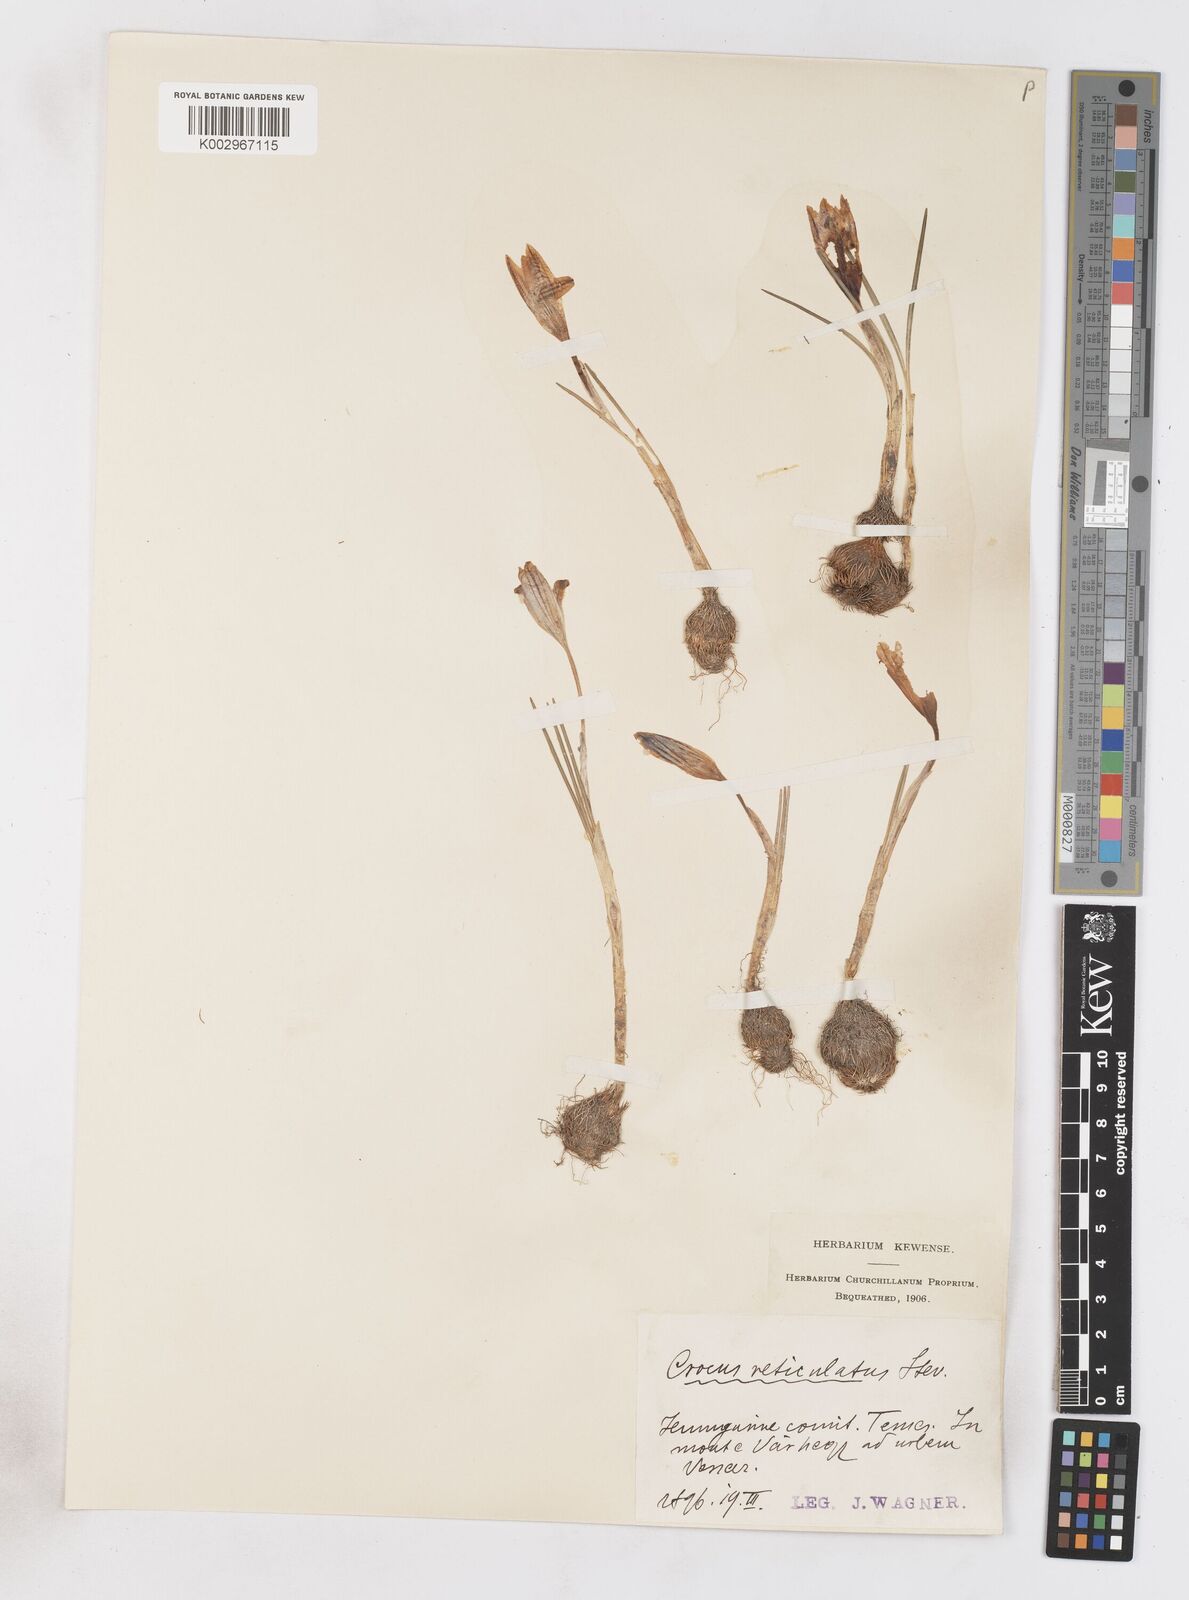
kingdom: Plantae
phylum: Tracheophyta
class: Liliopsida
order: Asparagales
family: Iridaceae
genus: Crocus
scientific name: Crocus reticulatus
